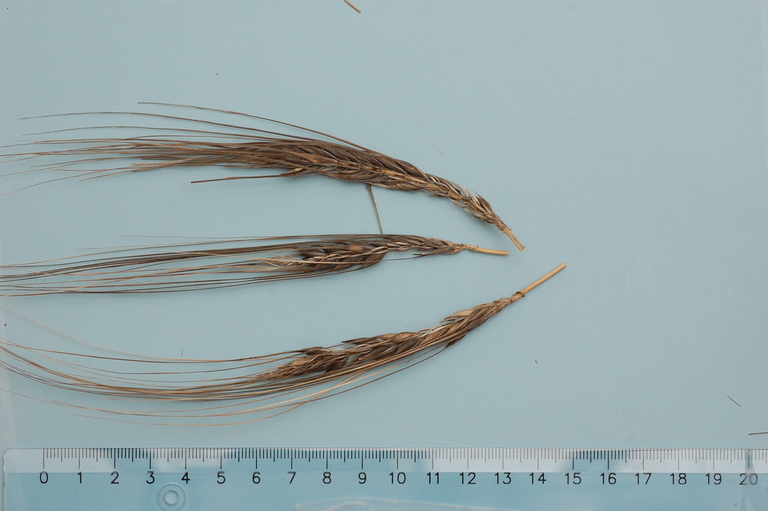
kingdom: Plantae
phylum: Tracheophyta
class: Liliopsida
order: Poales
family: Poaceae
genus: Hordeum
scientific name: Hordeum vulgare
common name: Common barley
